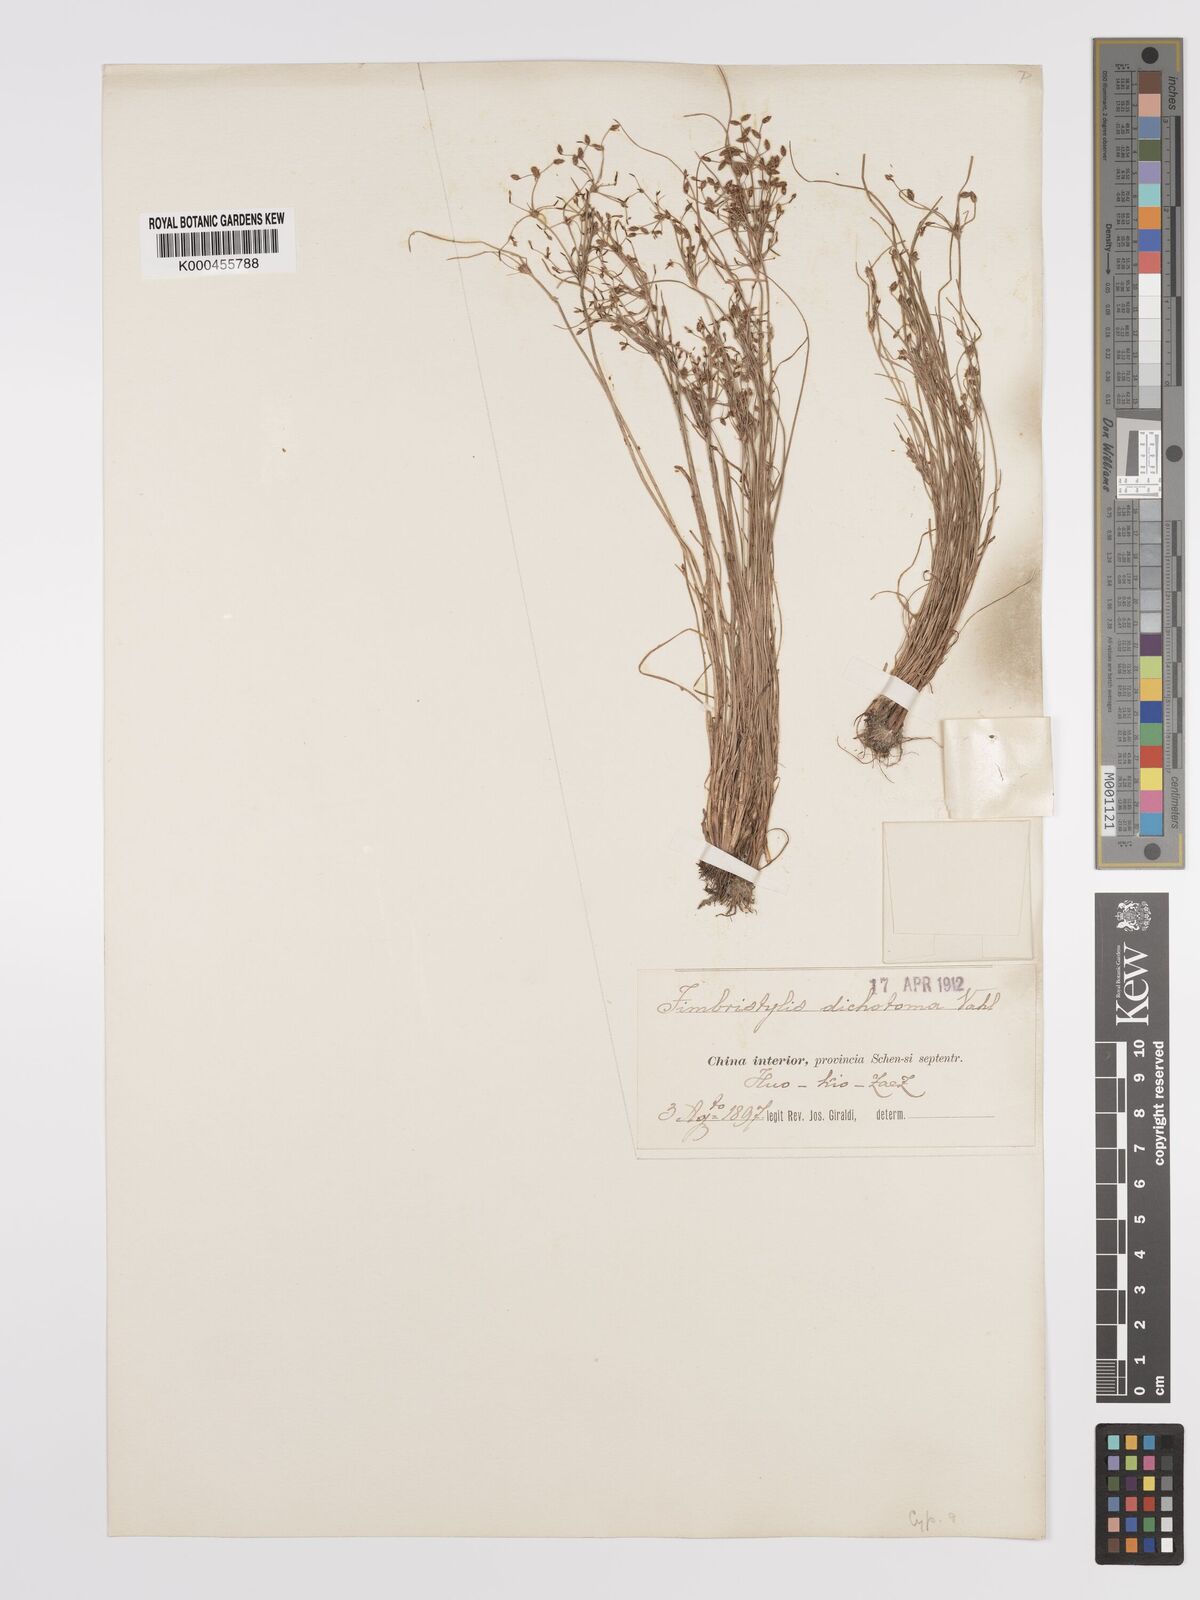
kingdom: Plantae
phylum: Tracheophyta
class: Liliopsida
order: Poales
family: Cyperaceae
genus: Fimbristylis
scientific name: Fimbristylis dichotoma
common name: Forked fimbry
